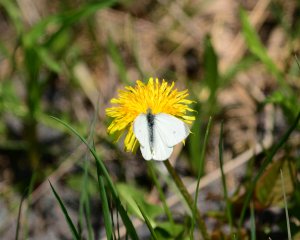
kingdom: Animalia
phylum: Arthropoda
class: Insecta
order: Lepidoptera
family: Pieridae
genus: Pieris
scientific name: Pieris rapae
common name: Cabbage White
